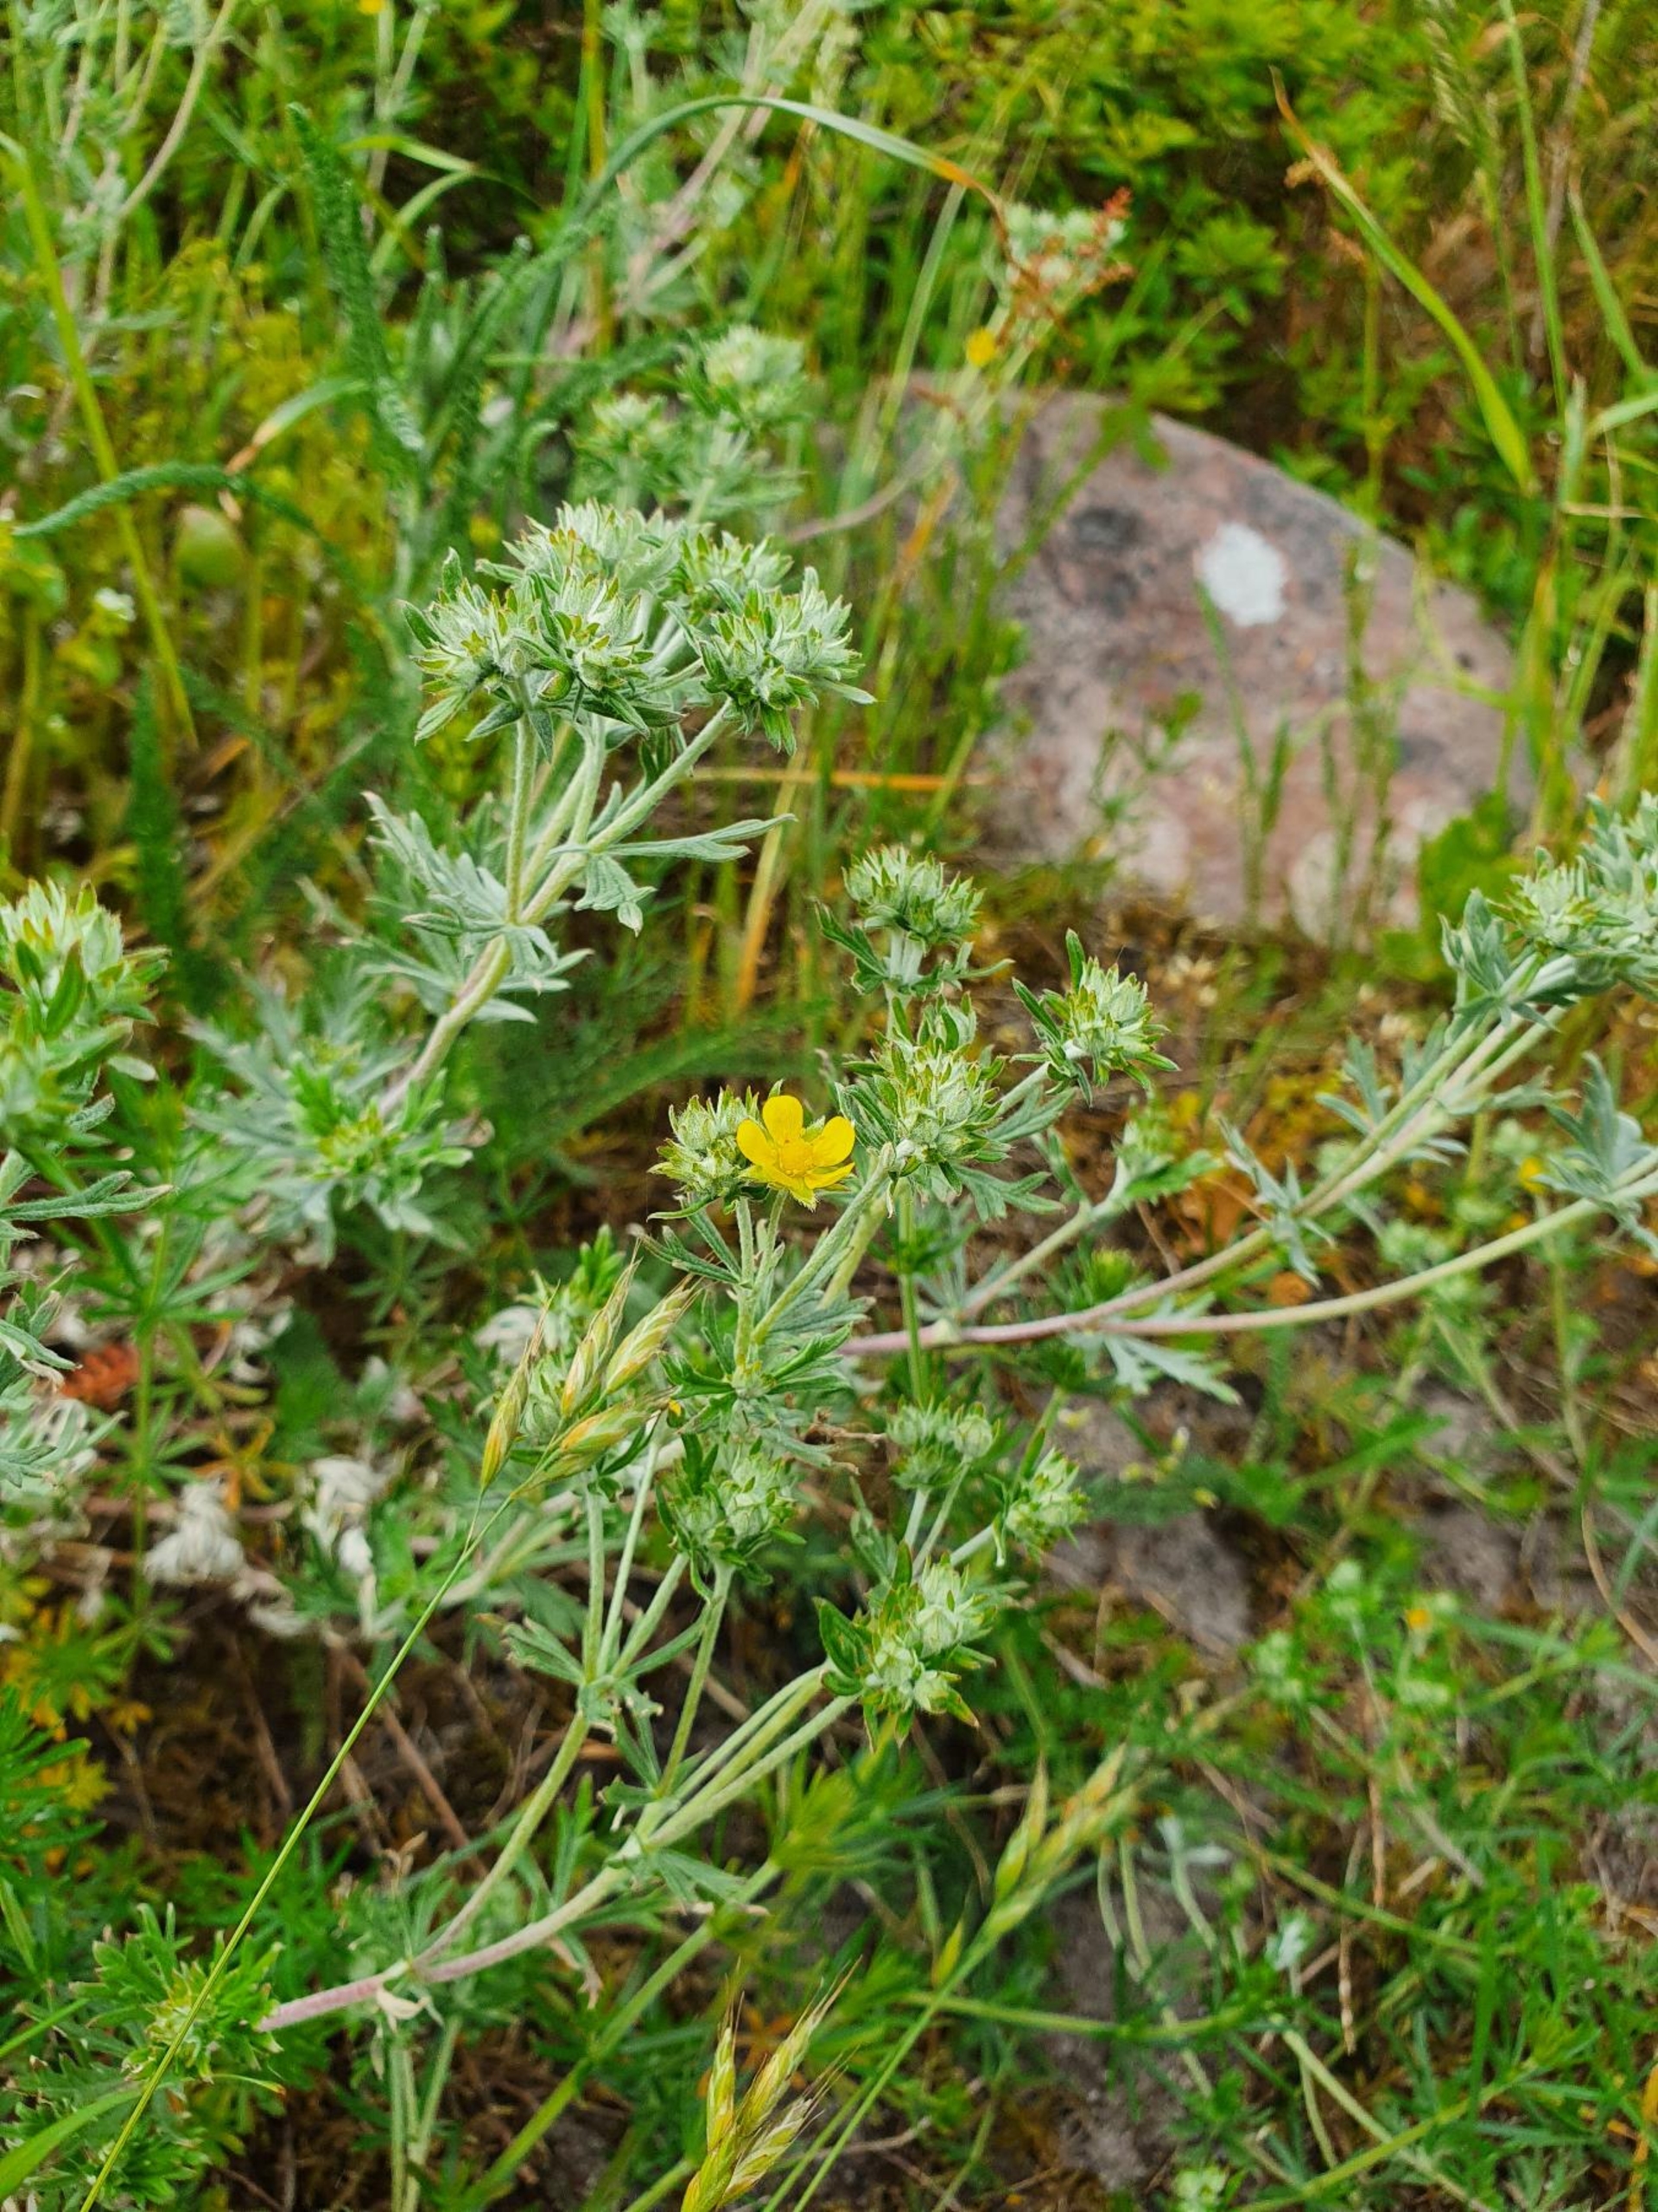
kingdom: Plantae
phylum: Tracheophyta
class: Magnoliopsida
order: Rosales
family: Rosaceae
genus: Potentilla
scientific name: Potentilla argentea
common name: Sølv-potentil
